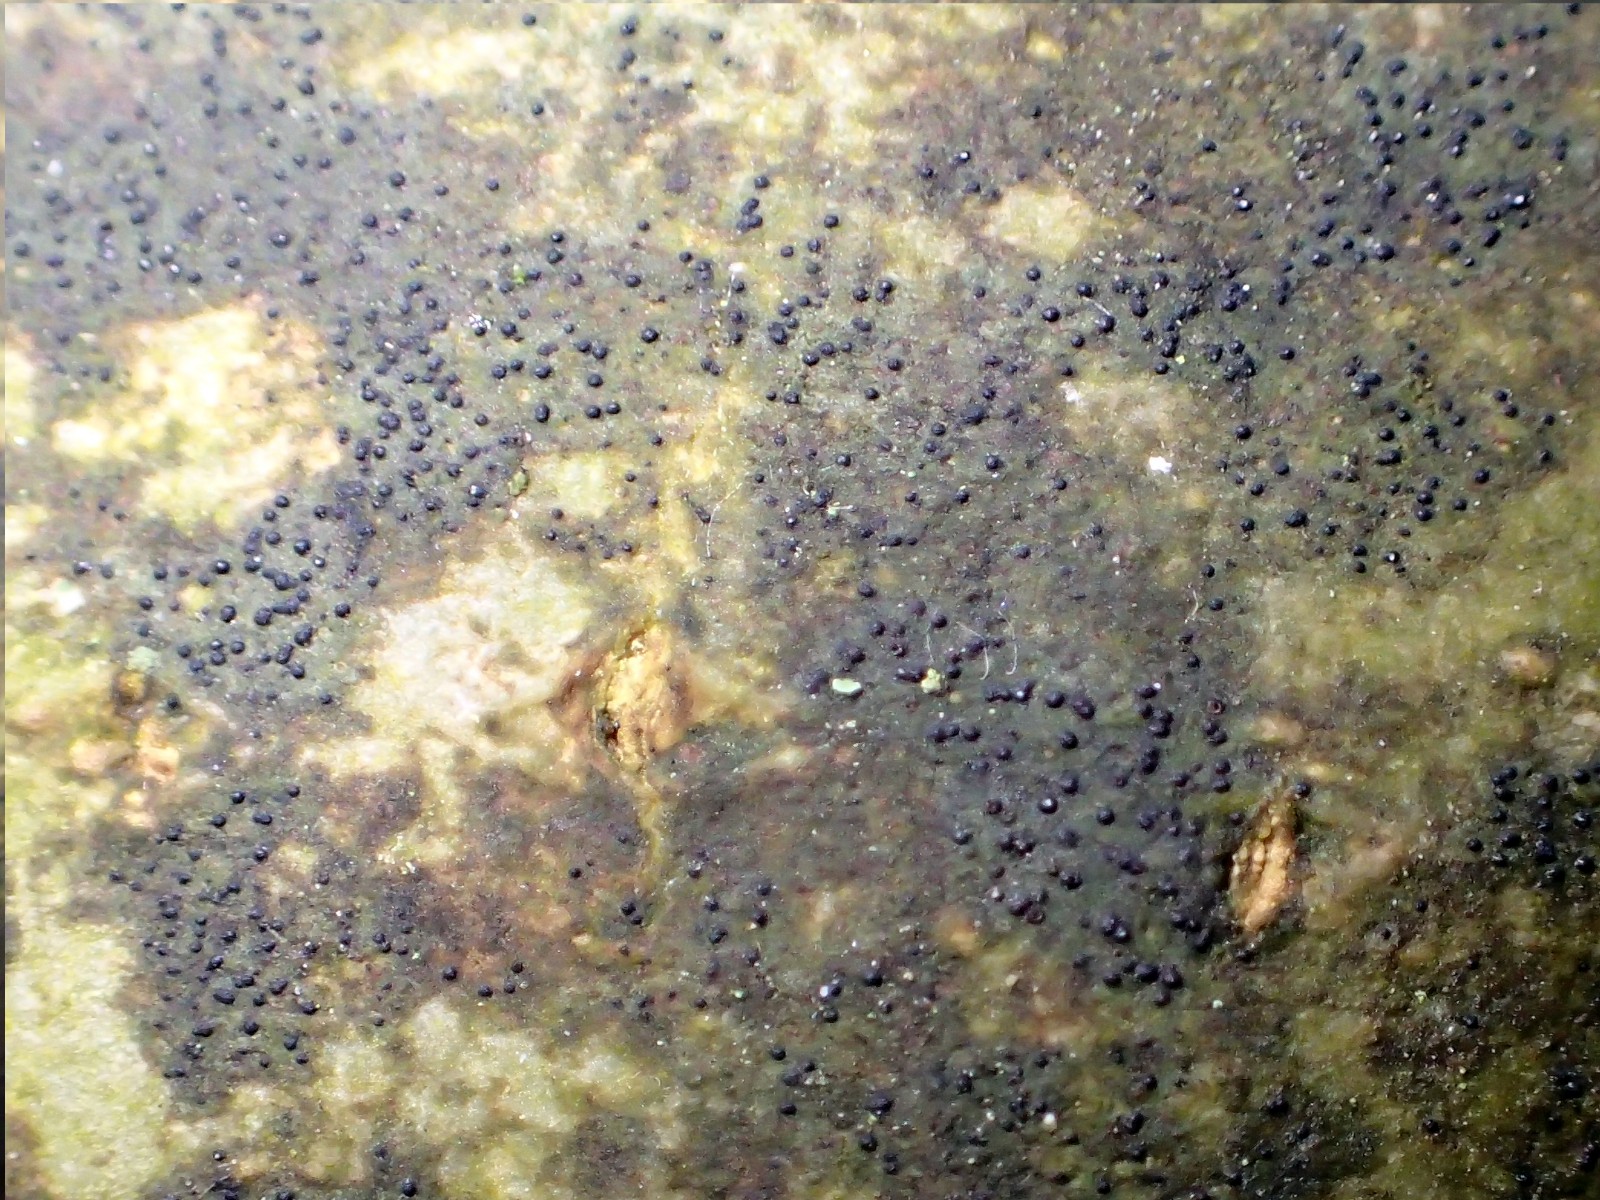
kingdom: Fungi
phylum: Ascomycota
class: Lecanoromycetes
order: Ostropales
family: Porinaceae
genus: Pseudosagedia
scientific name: Pseudosagedia aenea
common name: grønlig porina
